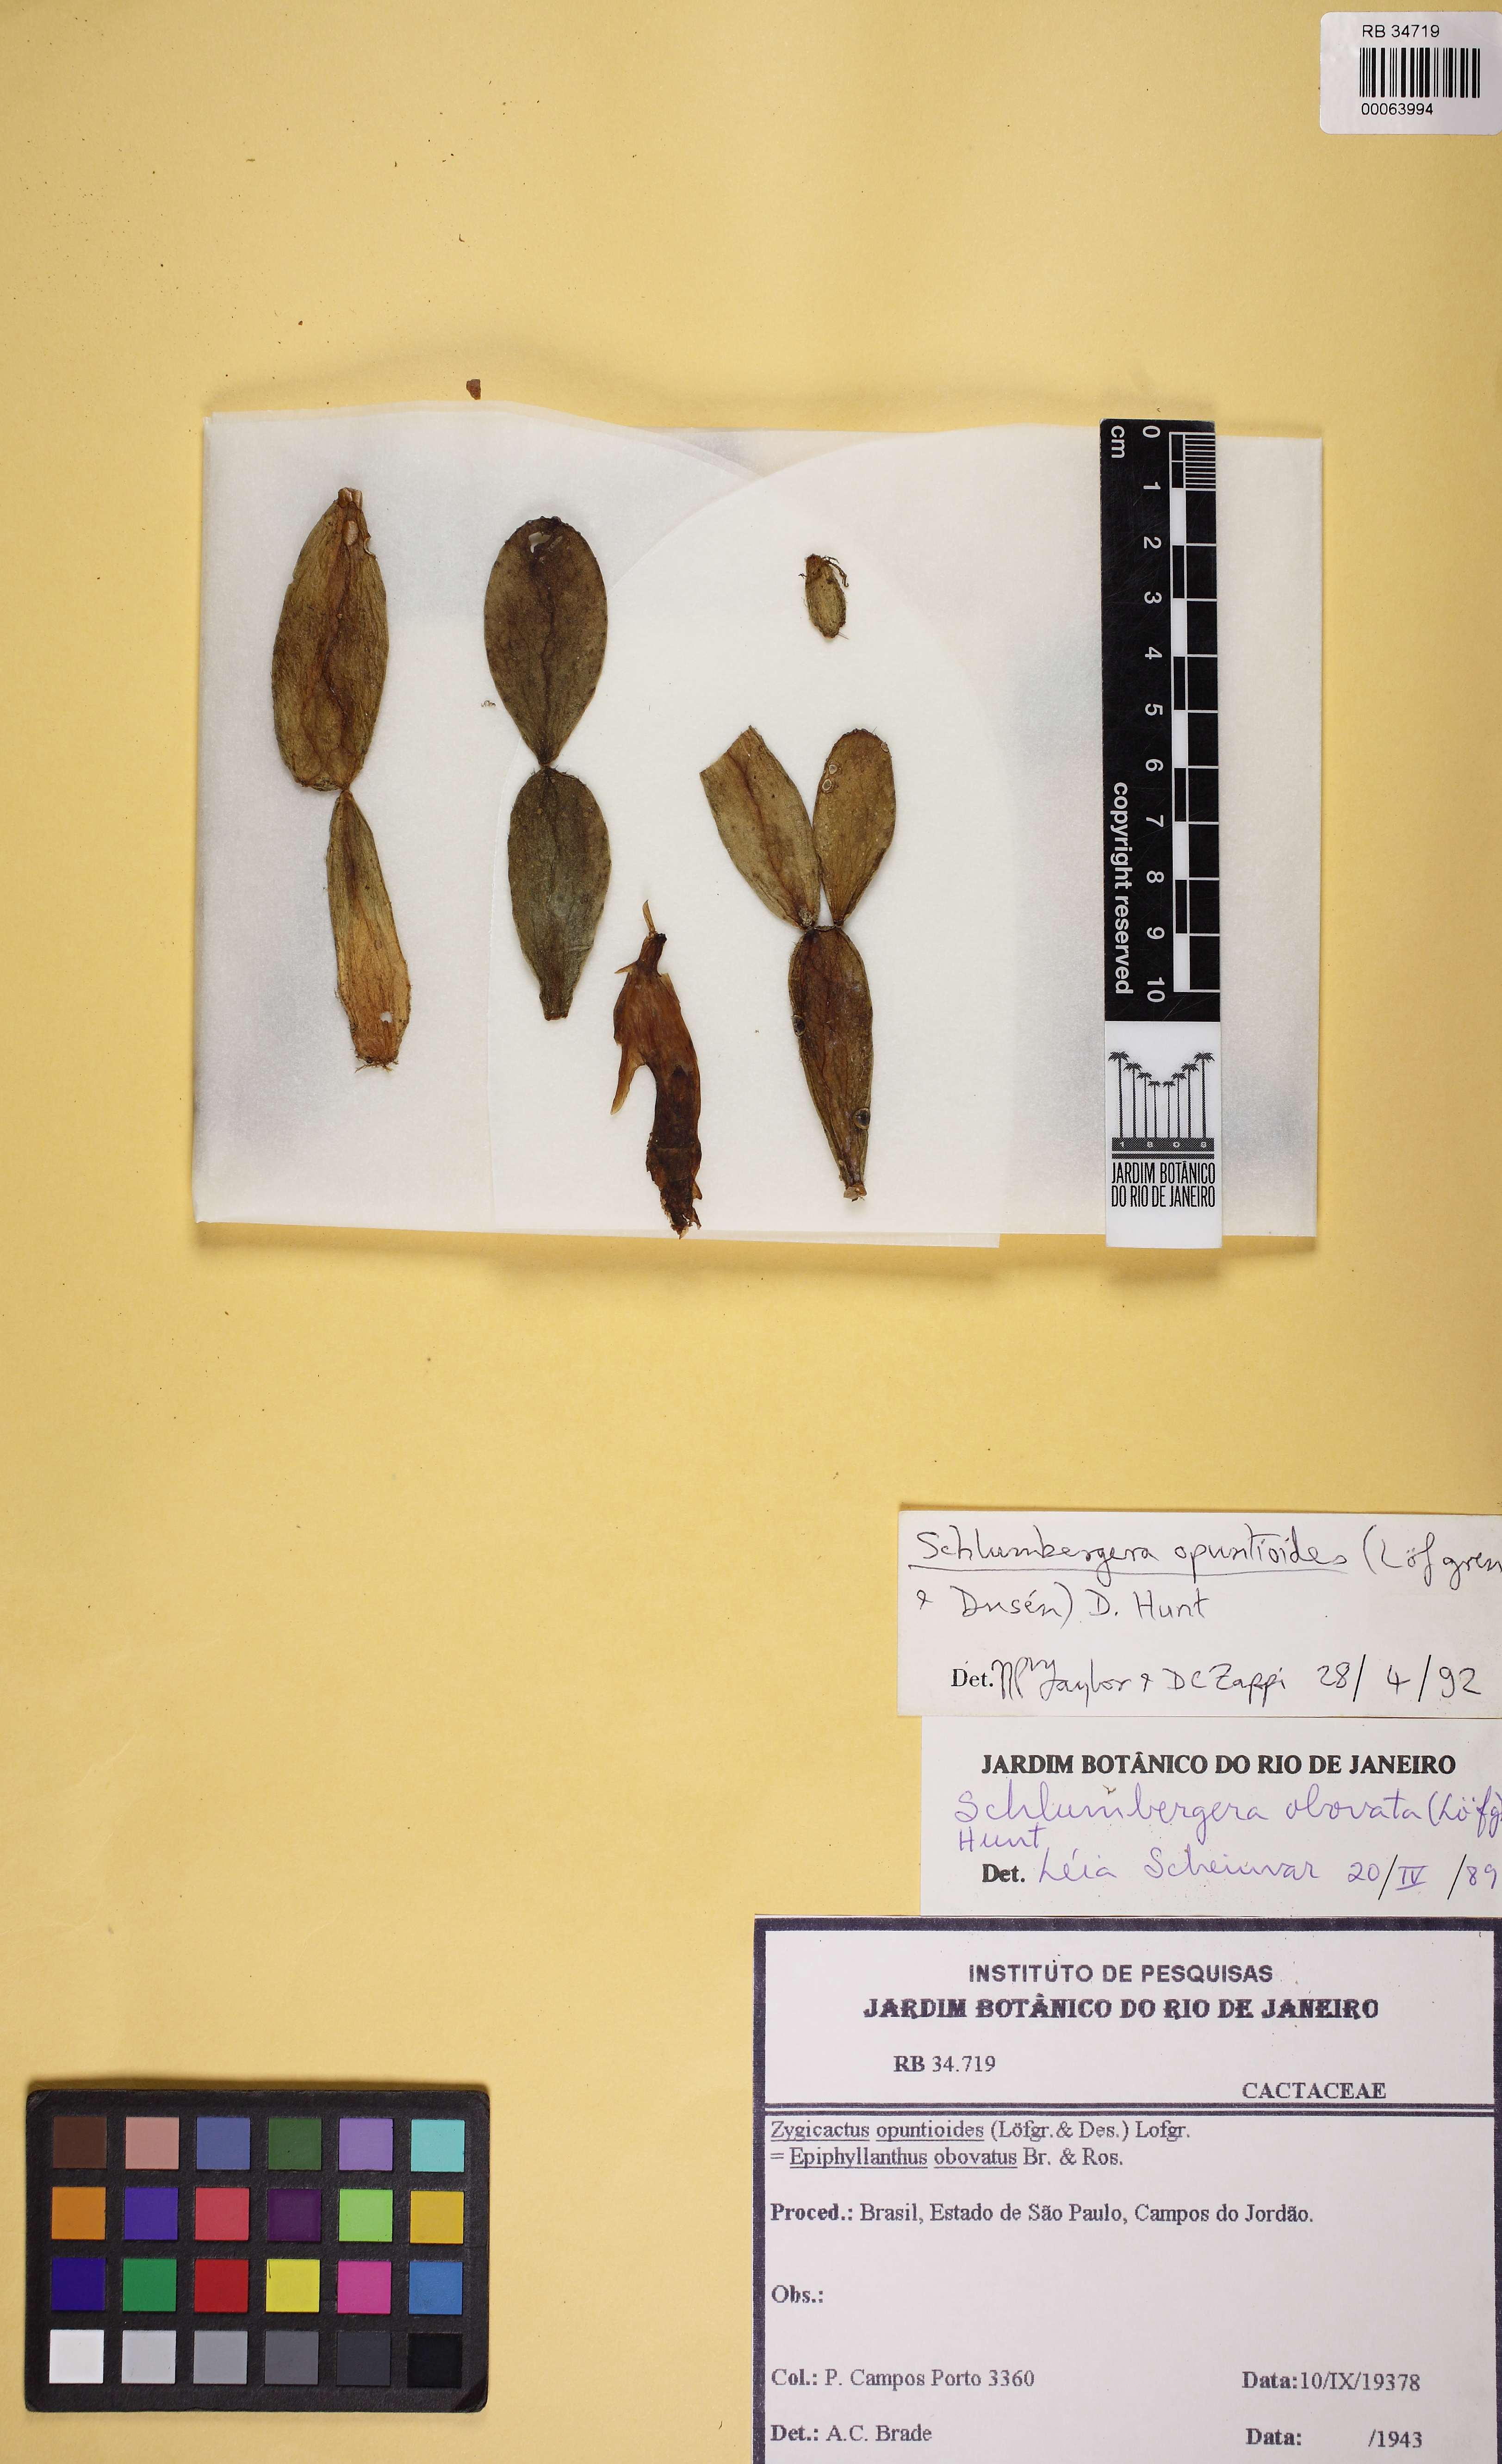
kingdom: Plantae
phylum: Tracheophyta
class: Magnoliopsida
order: Caryophyllales
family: Cactaceae
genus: Schlumbergera
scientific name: Schlumbergera opuntioides
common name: Christmas cactus
